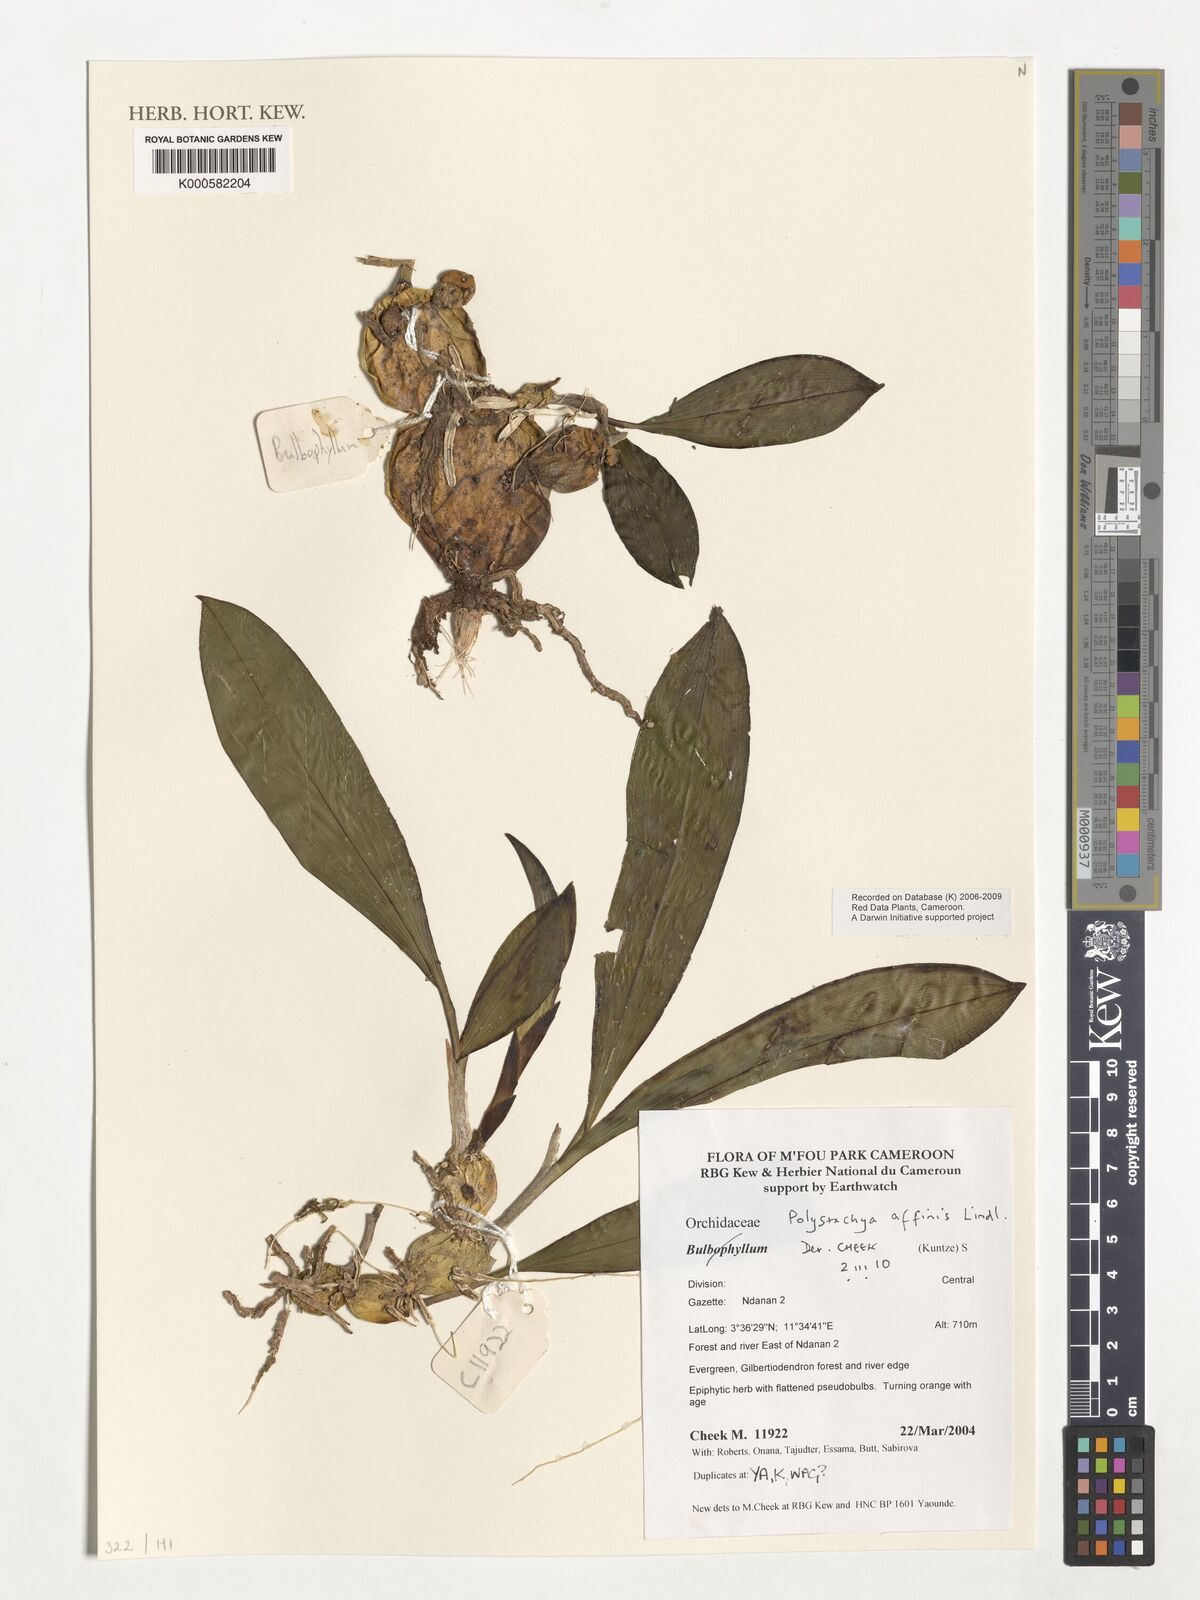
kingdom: Plantae
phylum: Tracheophyta
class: Liliopsida
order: Asparagales
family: Orchidaceae
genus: Polystachya
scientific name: Polystachya affinis
